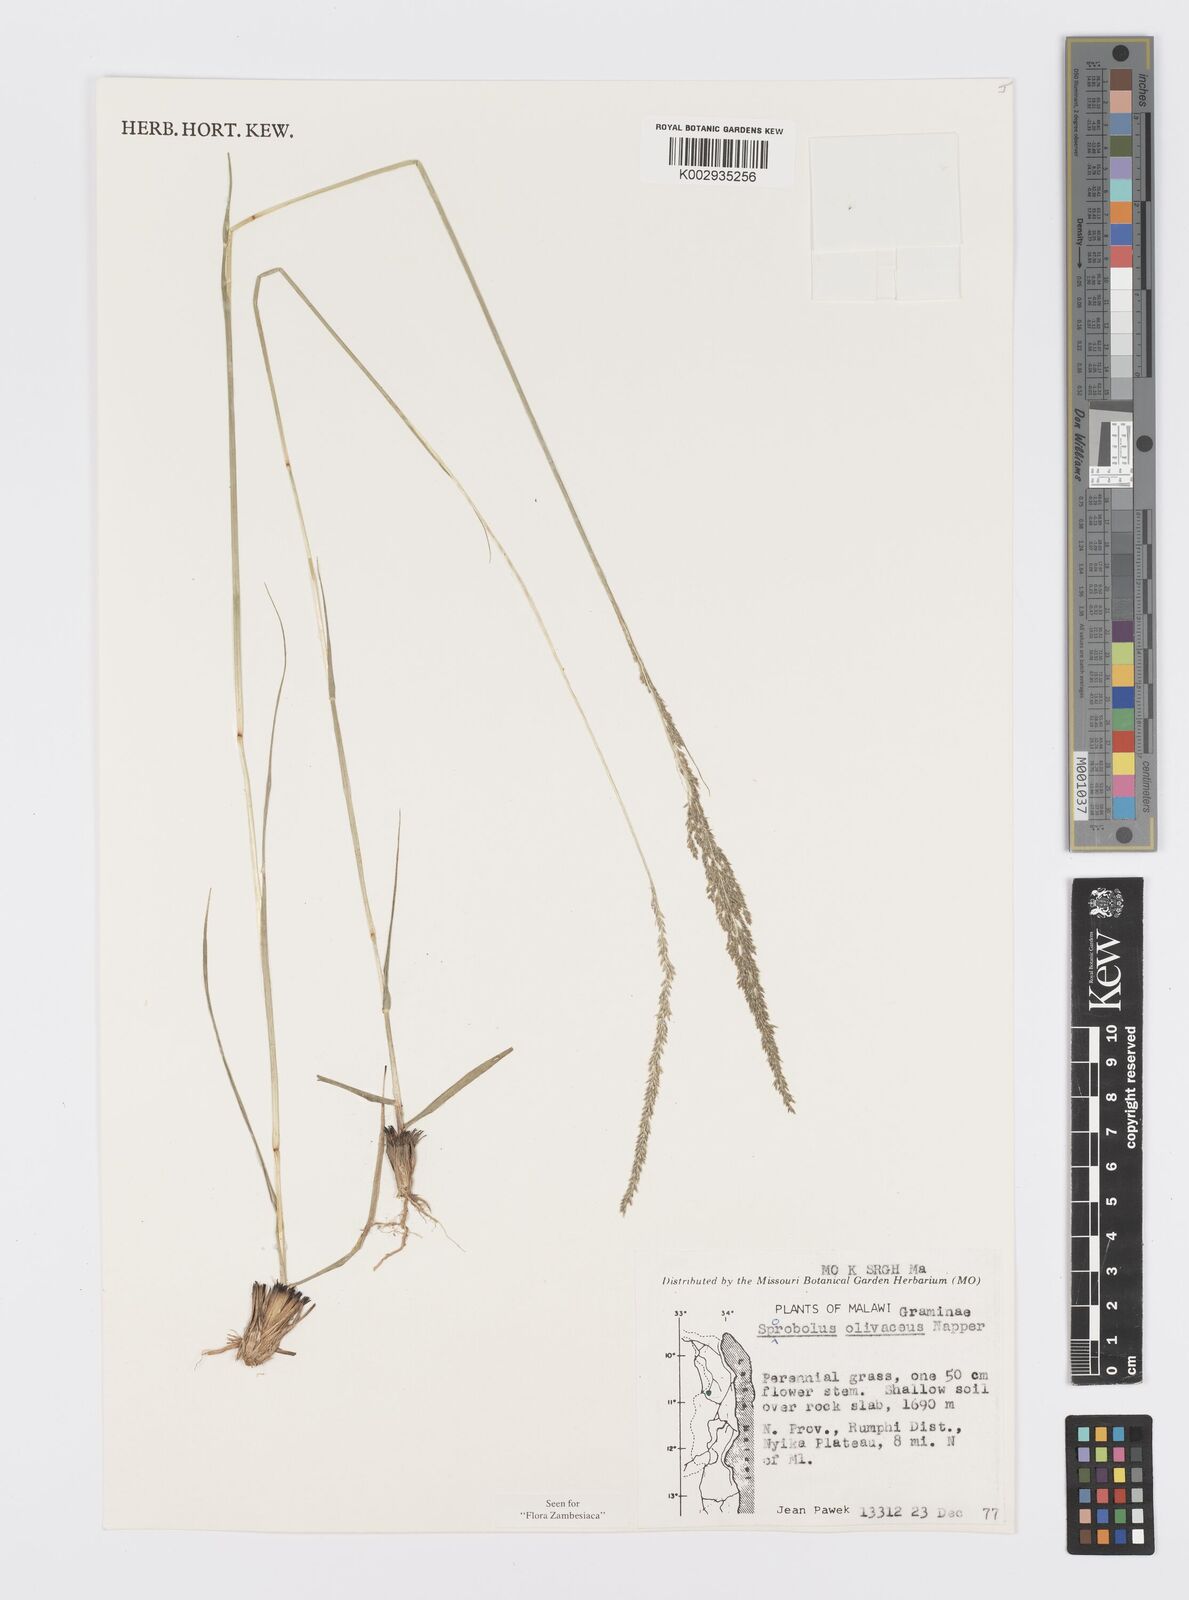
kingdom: Plantae
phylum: Tracheophyta
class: Liliopsida
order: Poales
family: Poaceae
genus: Sporobolus
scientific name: Sporobolus olivaceus
